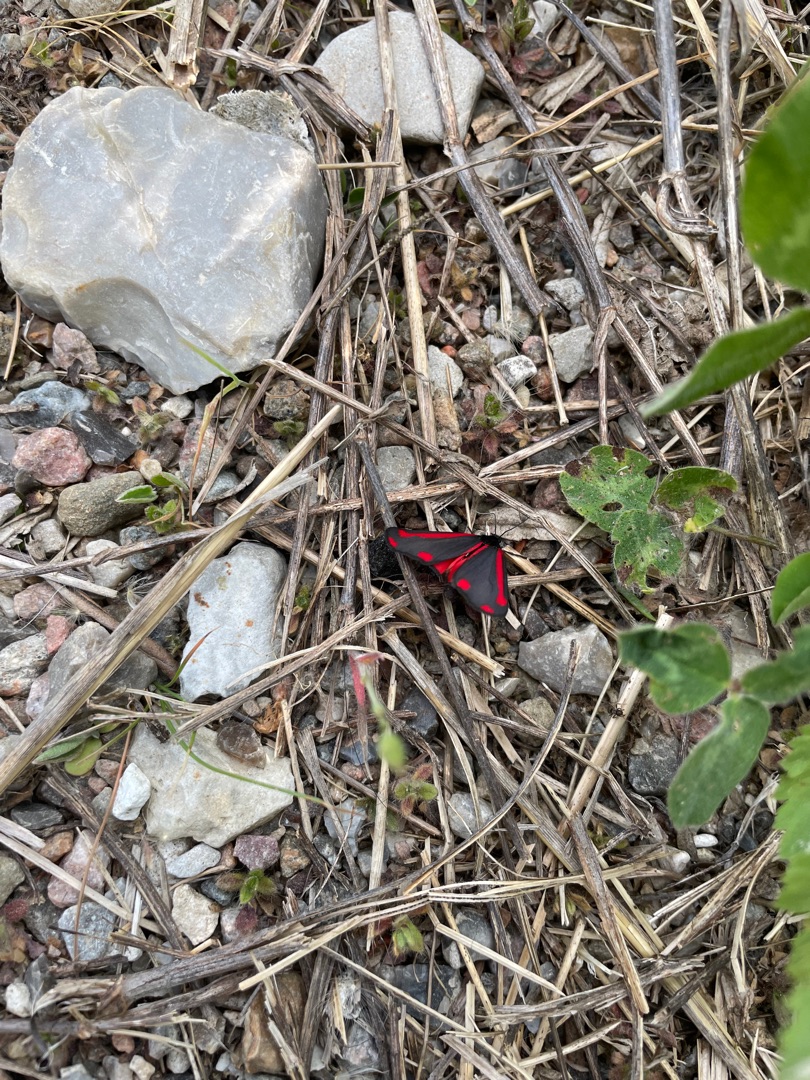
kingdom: Animalia
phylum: Arthropoda
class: Insecta
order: Lepidoptera
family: Erebidae
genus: Tyria
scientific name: Tyria jacobaeae
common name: Blodplet
